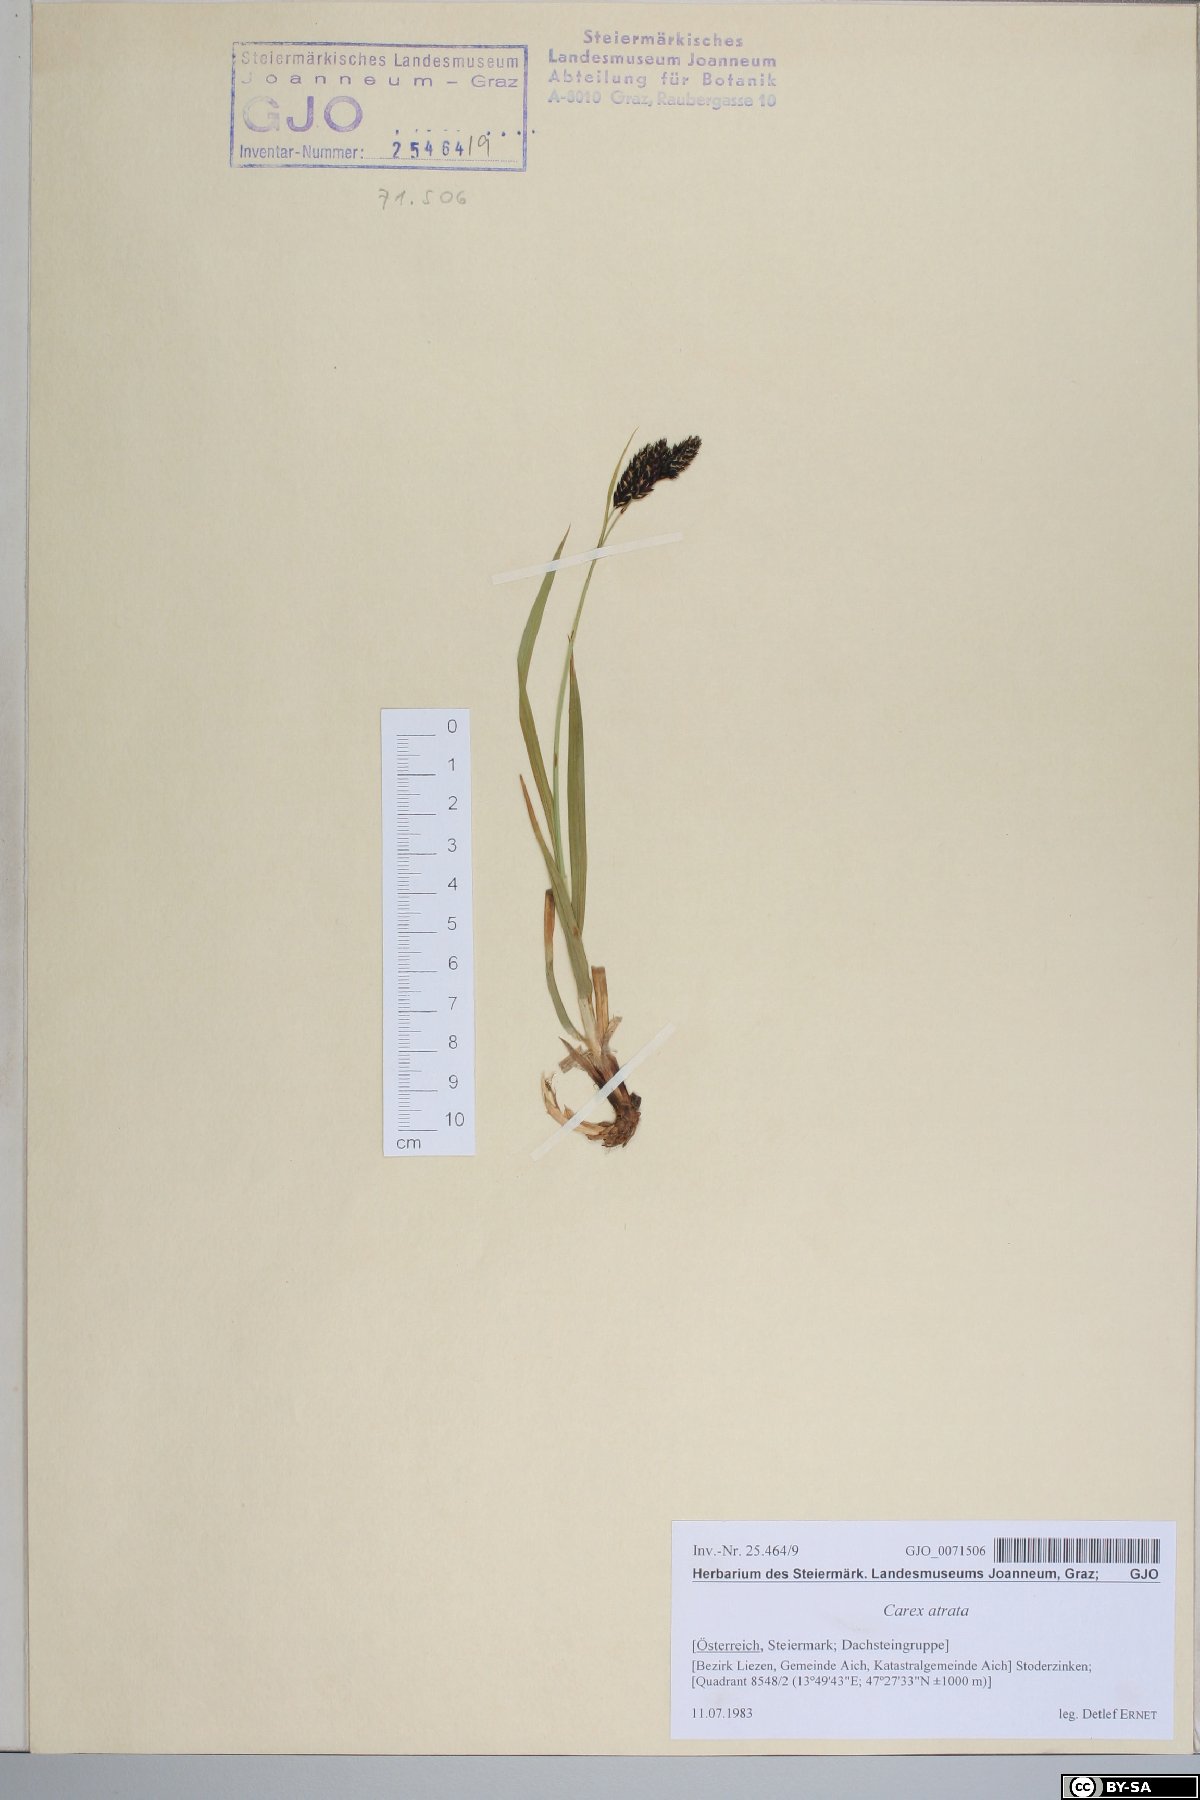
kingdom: Plantae
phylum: Tracheophyta
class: Liliopsida
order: Poales
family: Cyperaceae
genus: Carex
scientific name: Carex atrata
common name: Black alpine sedge
